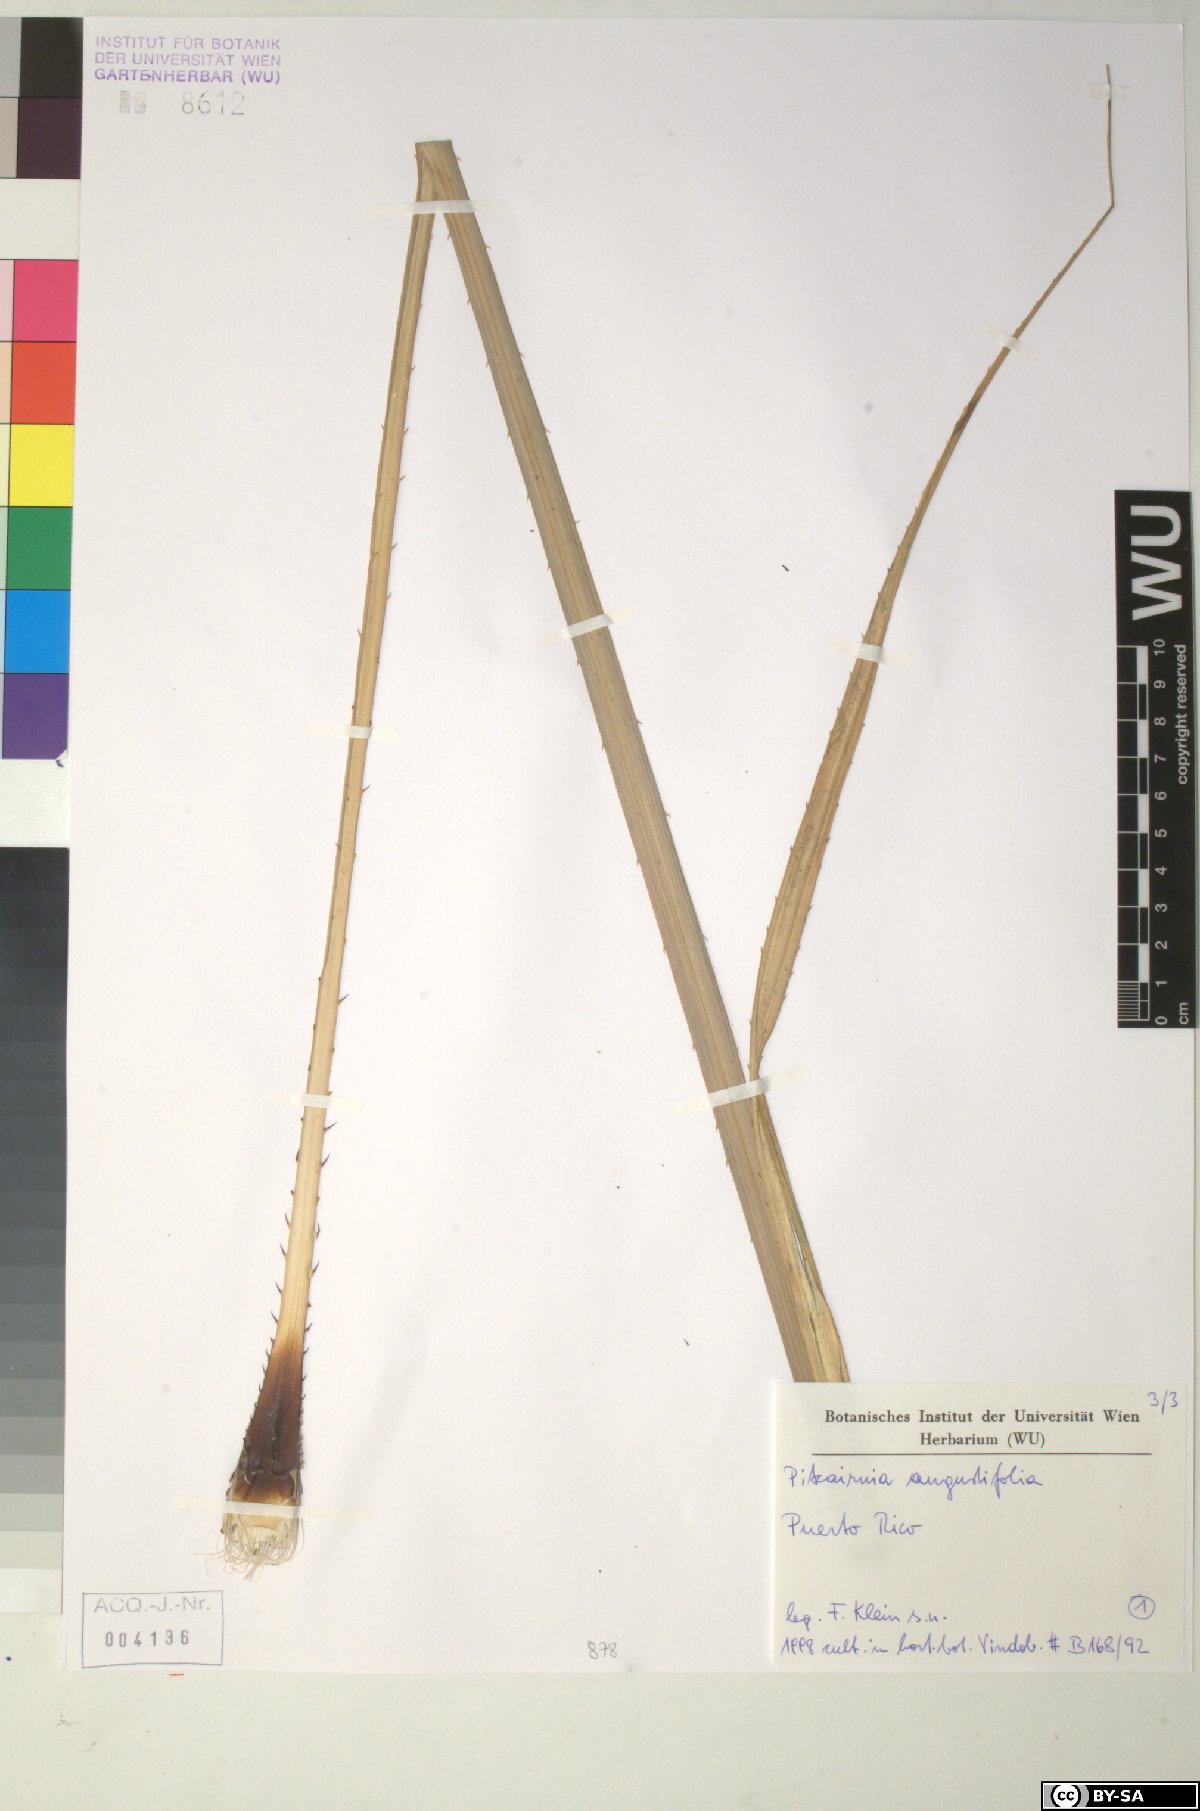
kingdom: Plantae
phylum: Tracheophyta
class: Liliopsida
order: Poales
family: Bromeliaceae
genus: Pitcairnia
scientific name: Pitcairnia angustifolia
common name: Clapper
